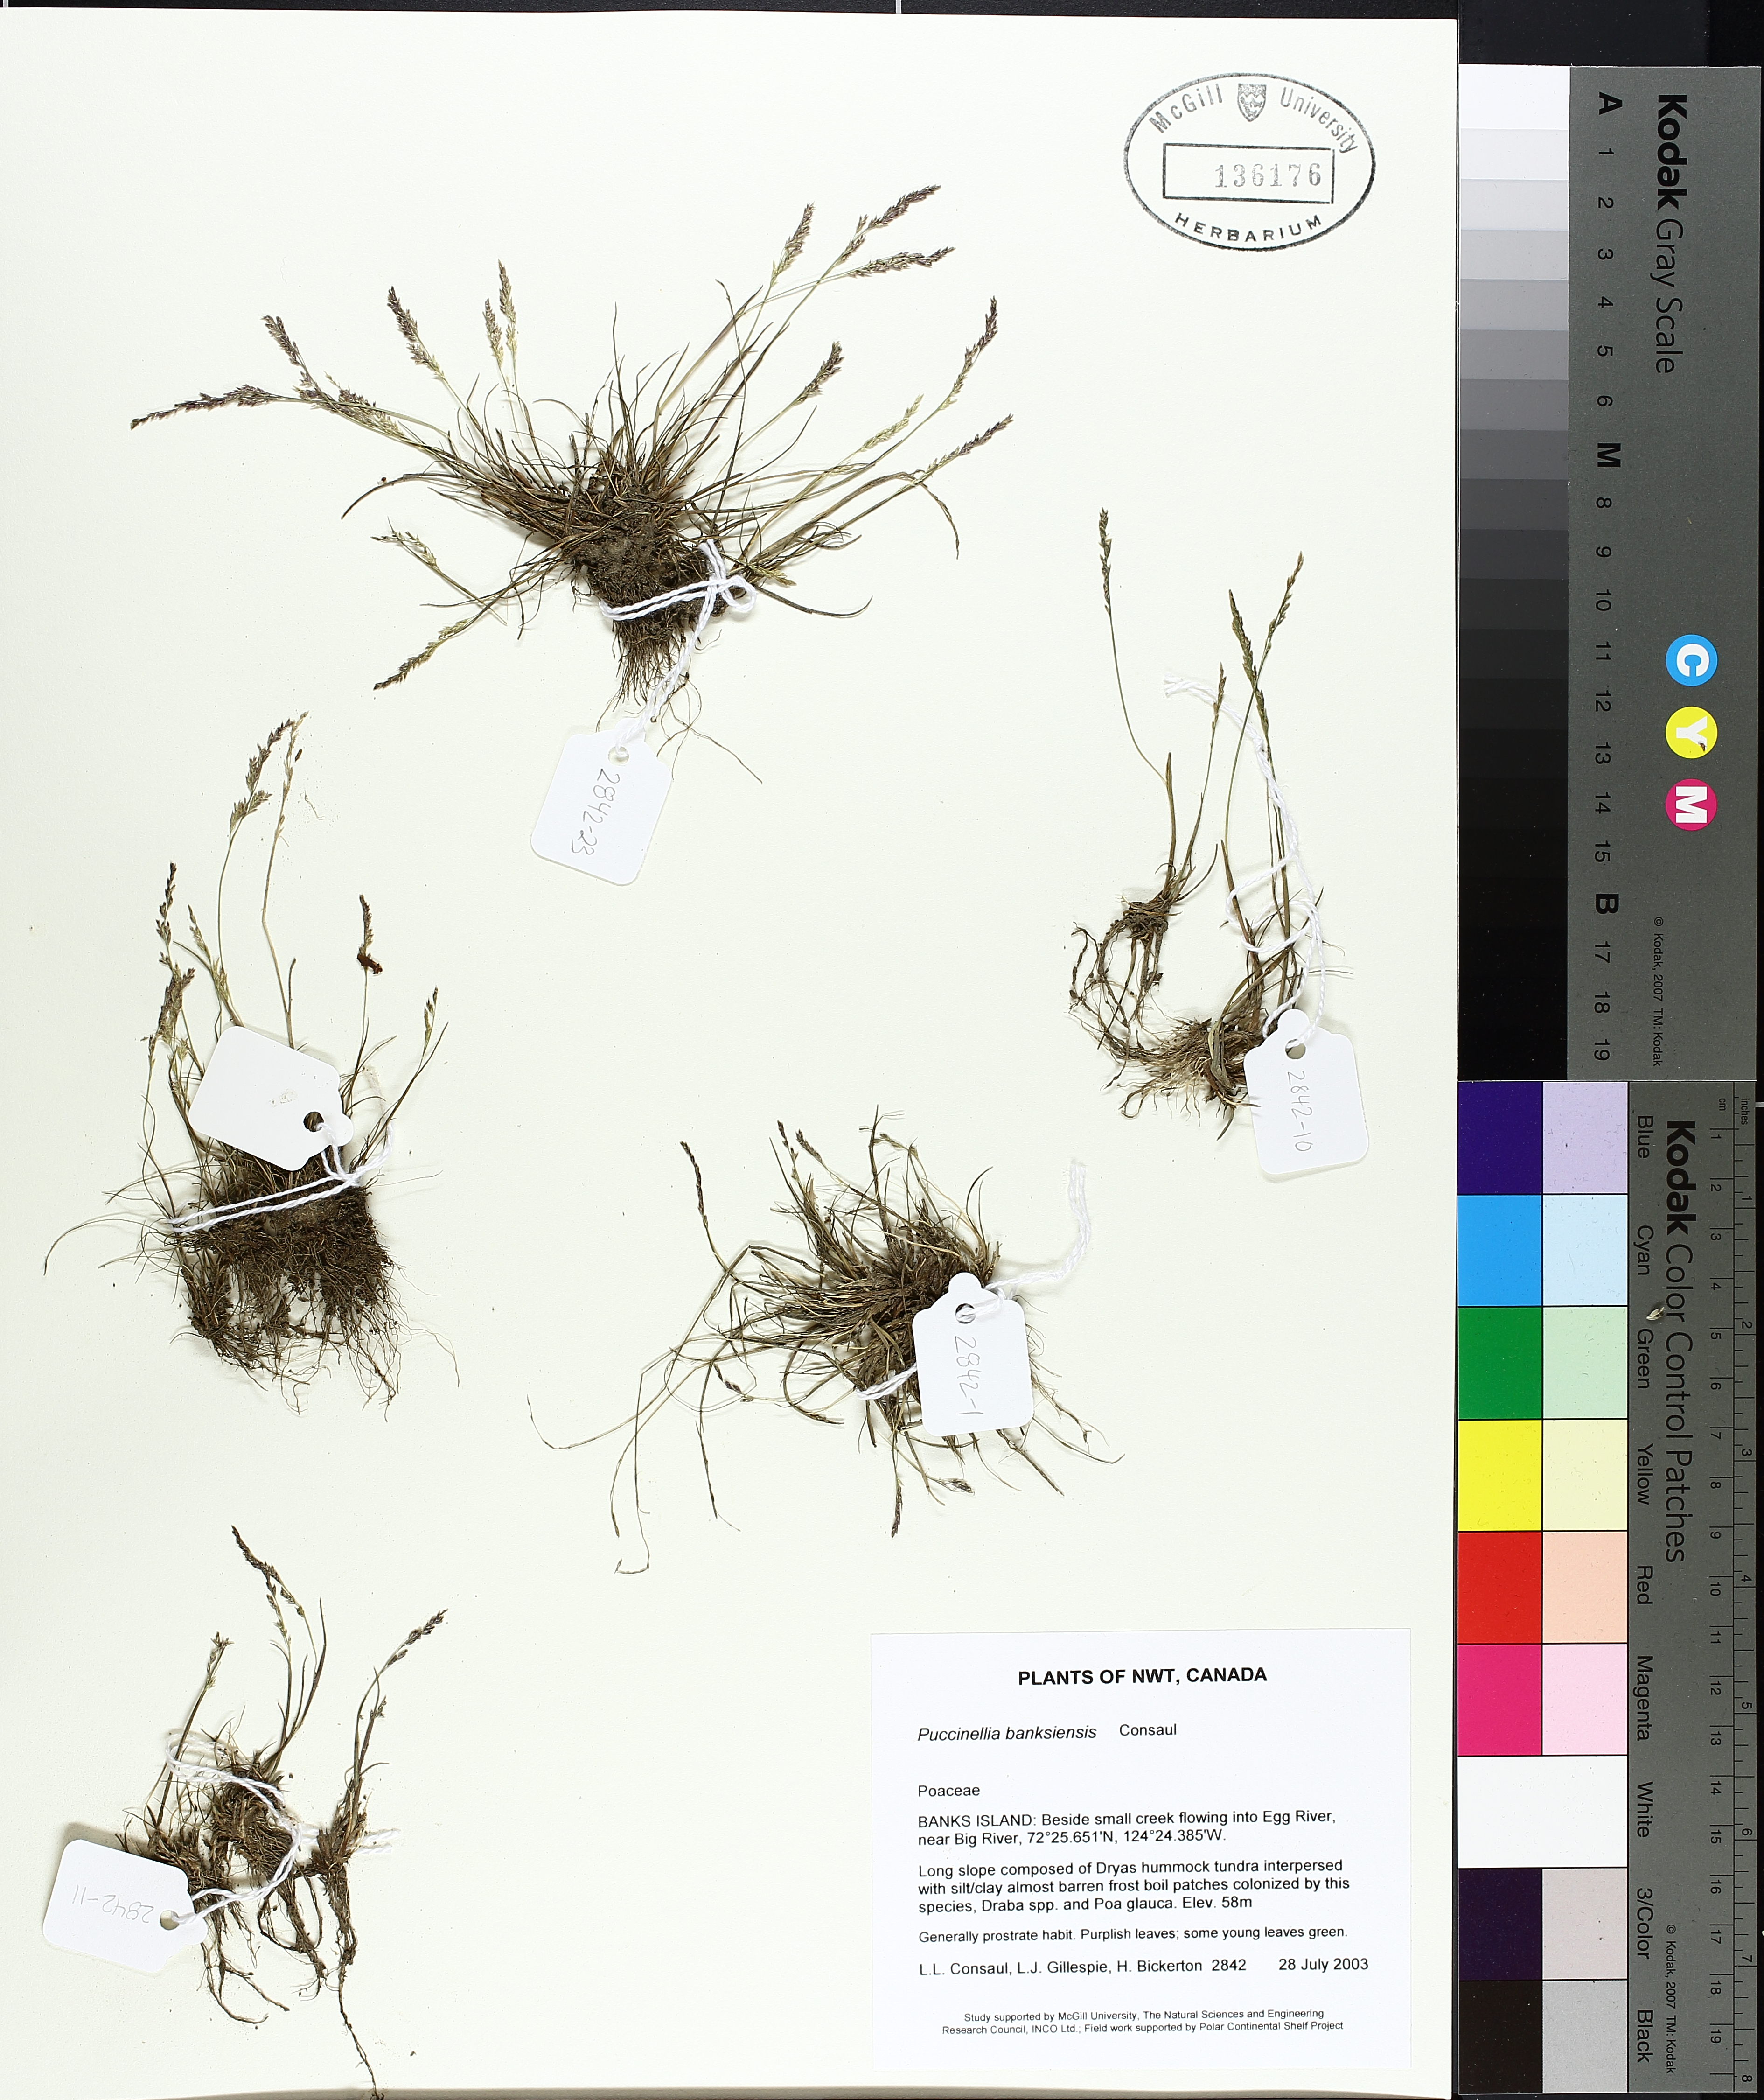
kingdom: Plantae
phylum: Tracheophyta
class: Liliopsida
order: Poales
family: Poaceae
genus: Puccinellia
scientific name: Puccinellia banksiensis
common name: Banks island alkaligrass
